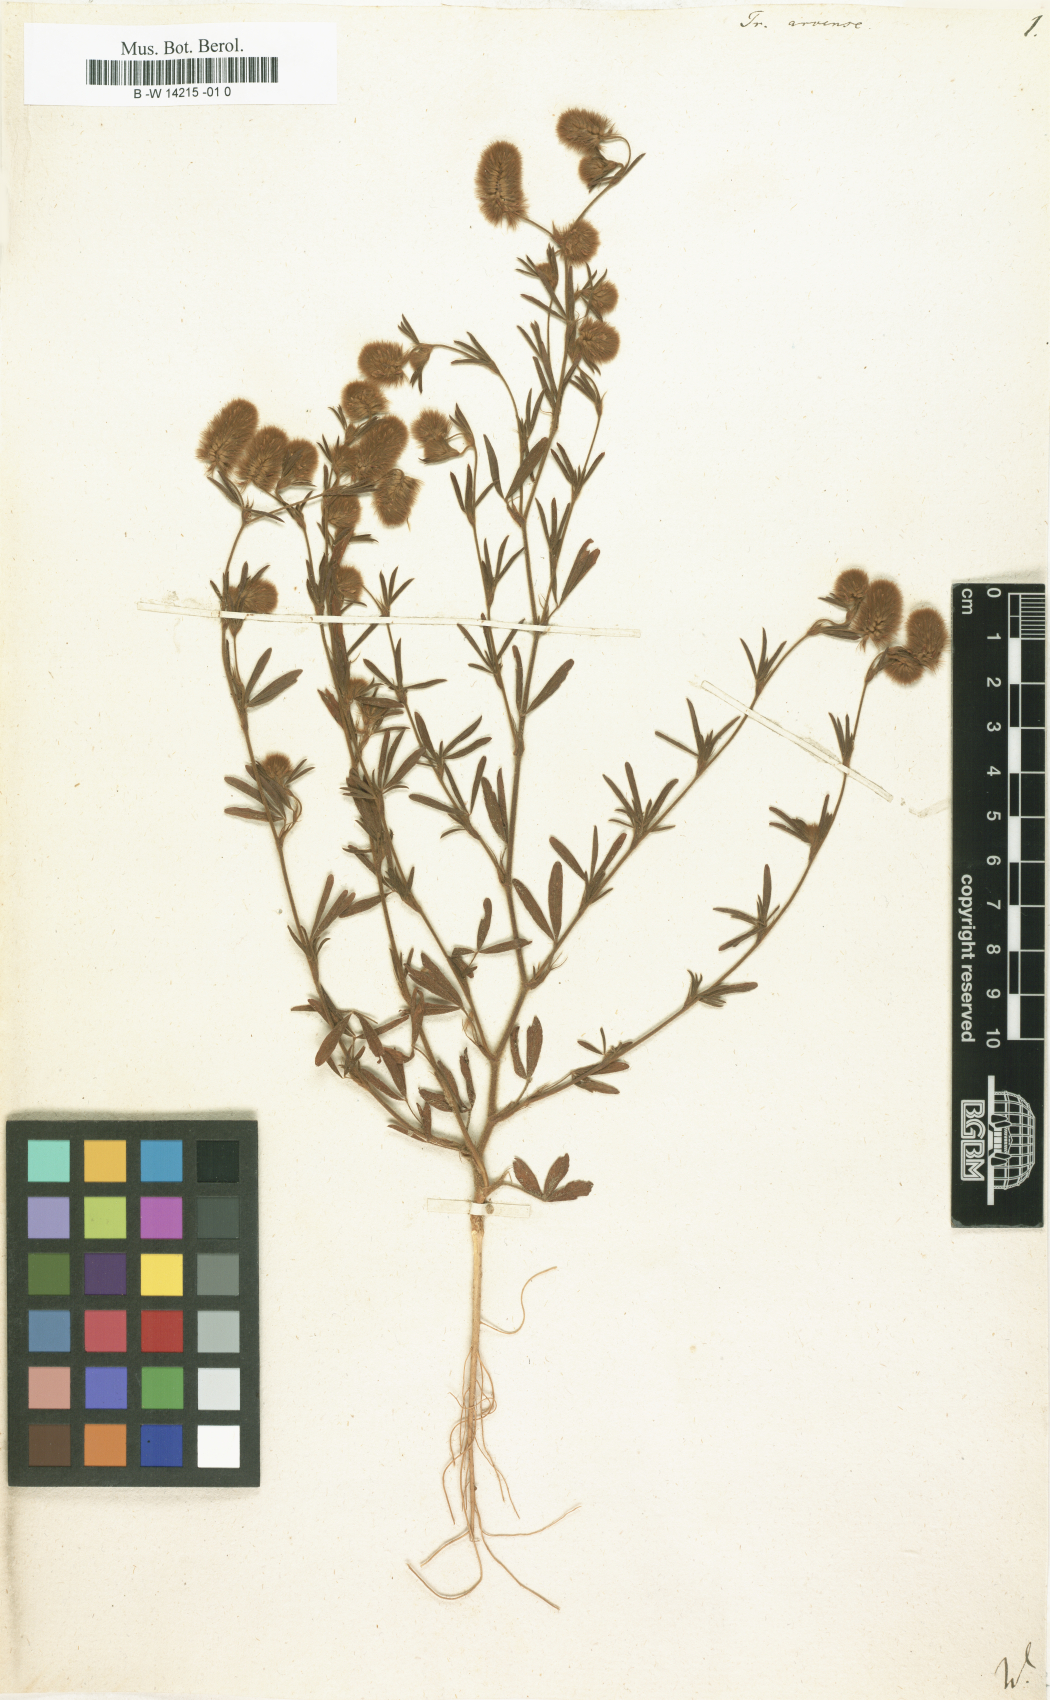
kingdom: Plantae
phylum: Tracheophyta
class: Magnoliopsida
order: Fabales
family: Fabaceae
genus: Trifolium
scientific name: Trifolium arvense
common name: Hare's-foot clover
